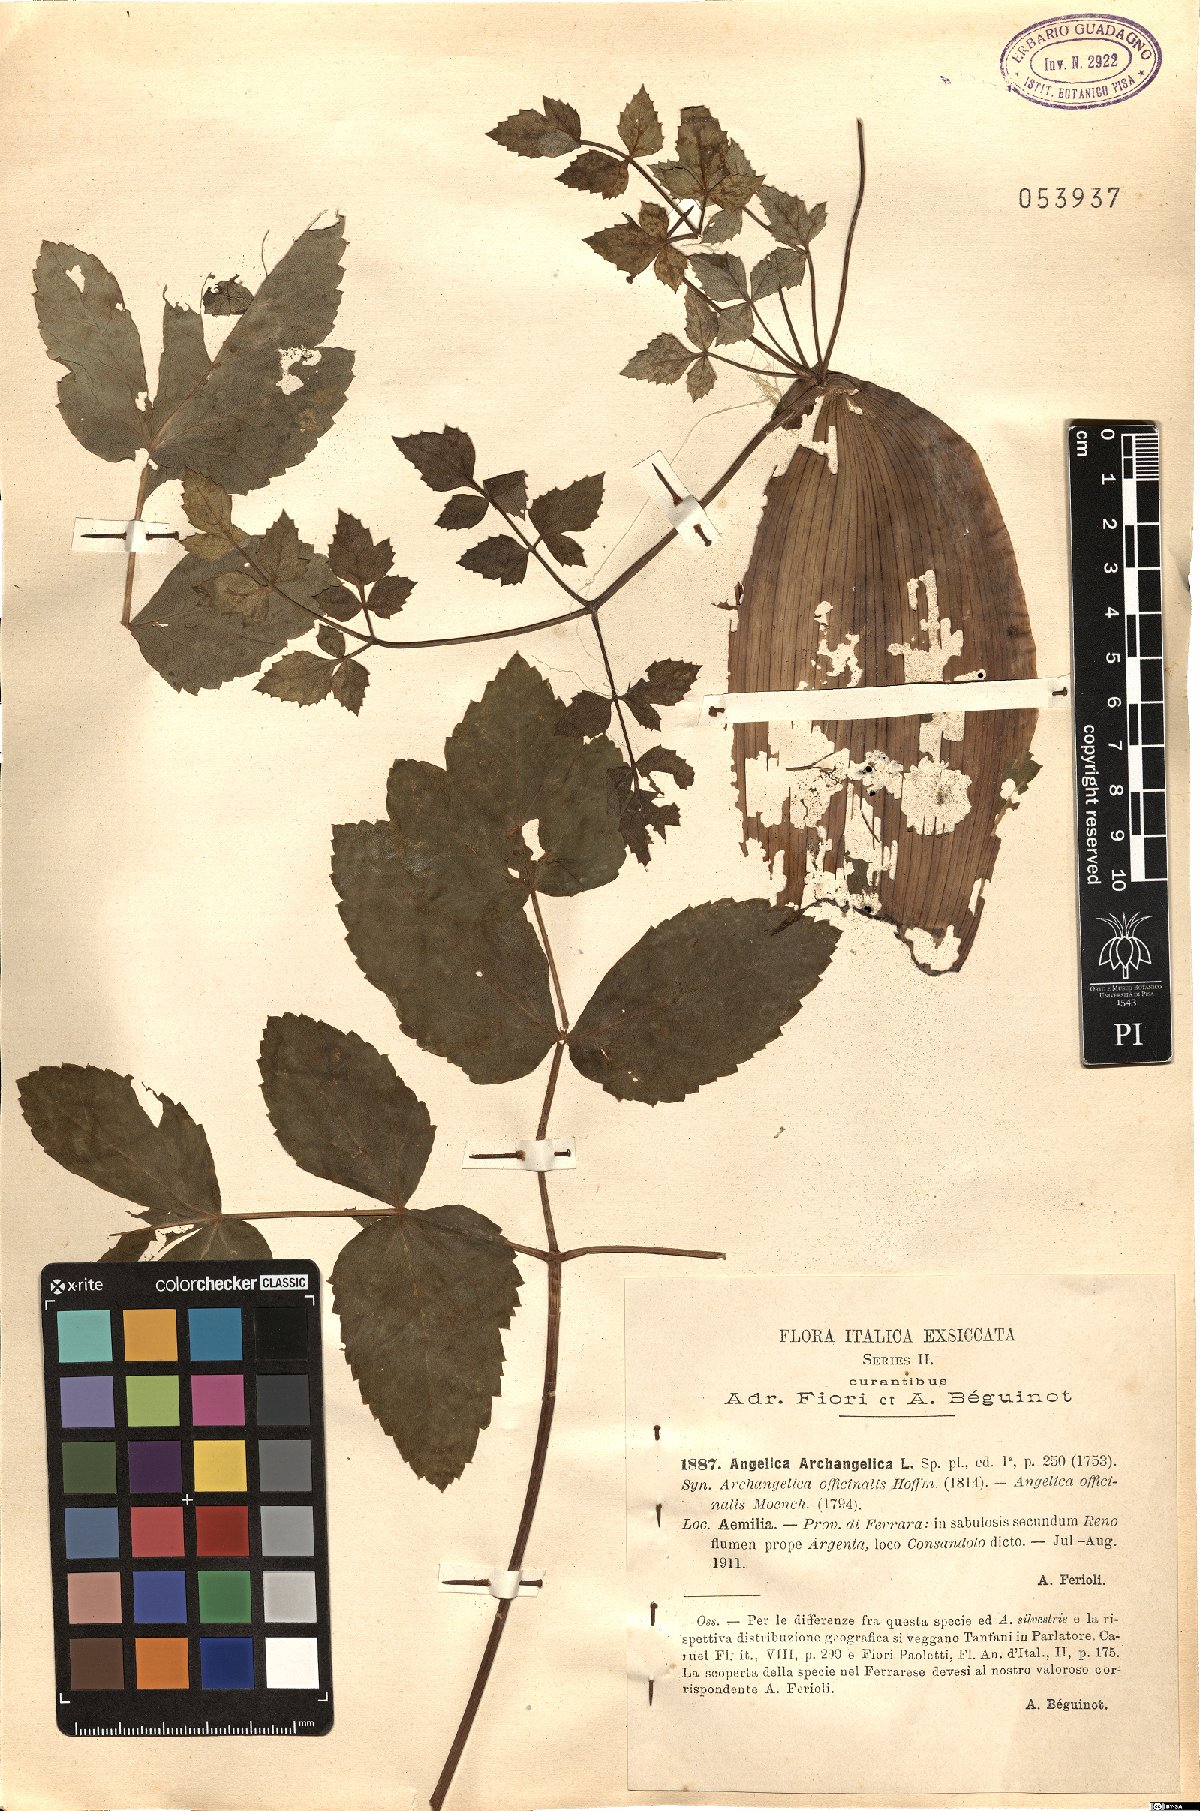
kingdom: Plantae
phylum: Tracheophyta
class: Magnoliopsida
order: Apiales
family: Apiaceae
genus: Angelica
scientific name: Angelica archangelica
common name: Garden angelica
